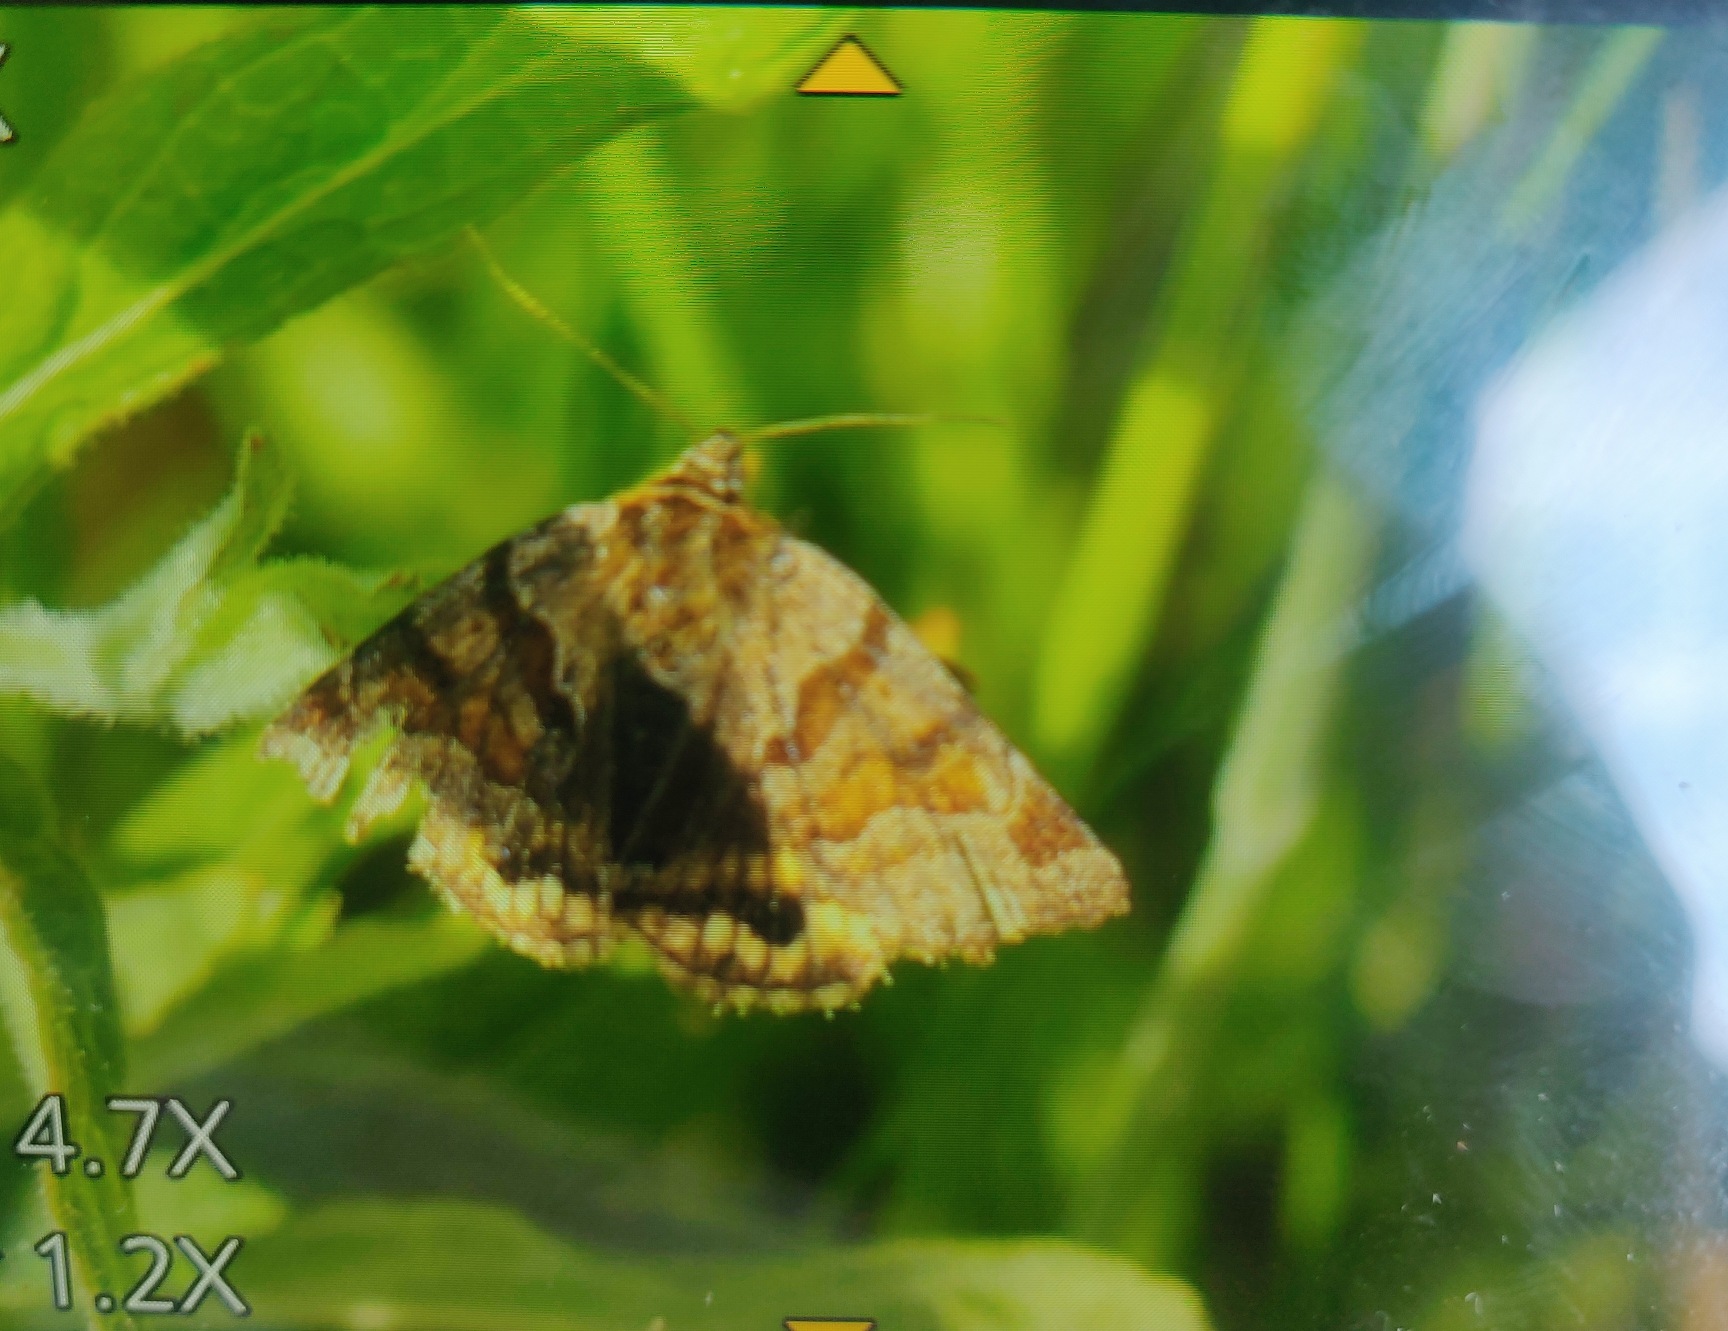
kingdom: Animalia
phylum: Arthropoda
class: Insecta
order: Lepidoptera
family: Erebidae
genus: Euclidia
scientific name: Euclidia glyphica
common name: Brun kløverugle
